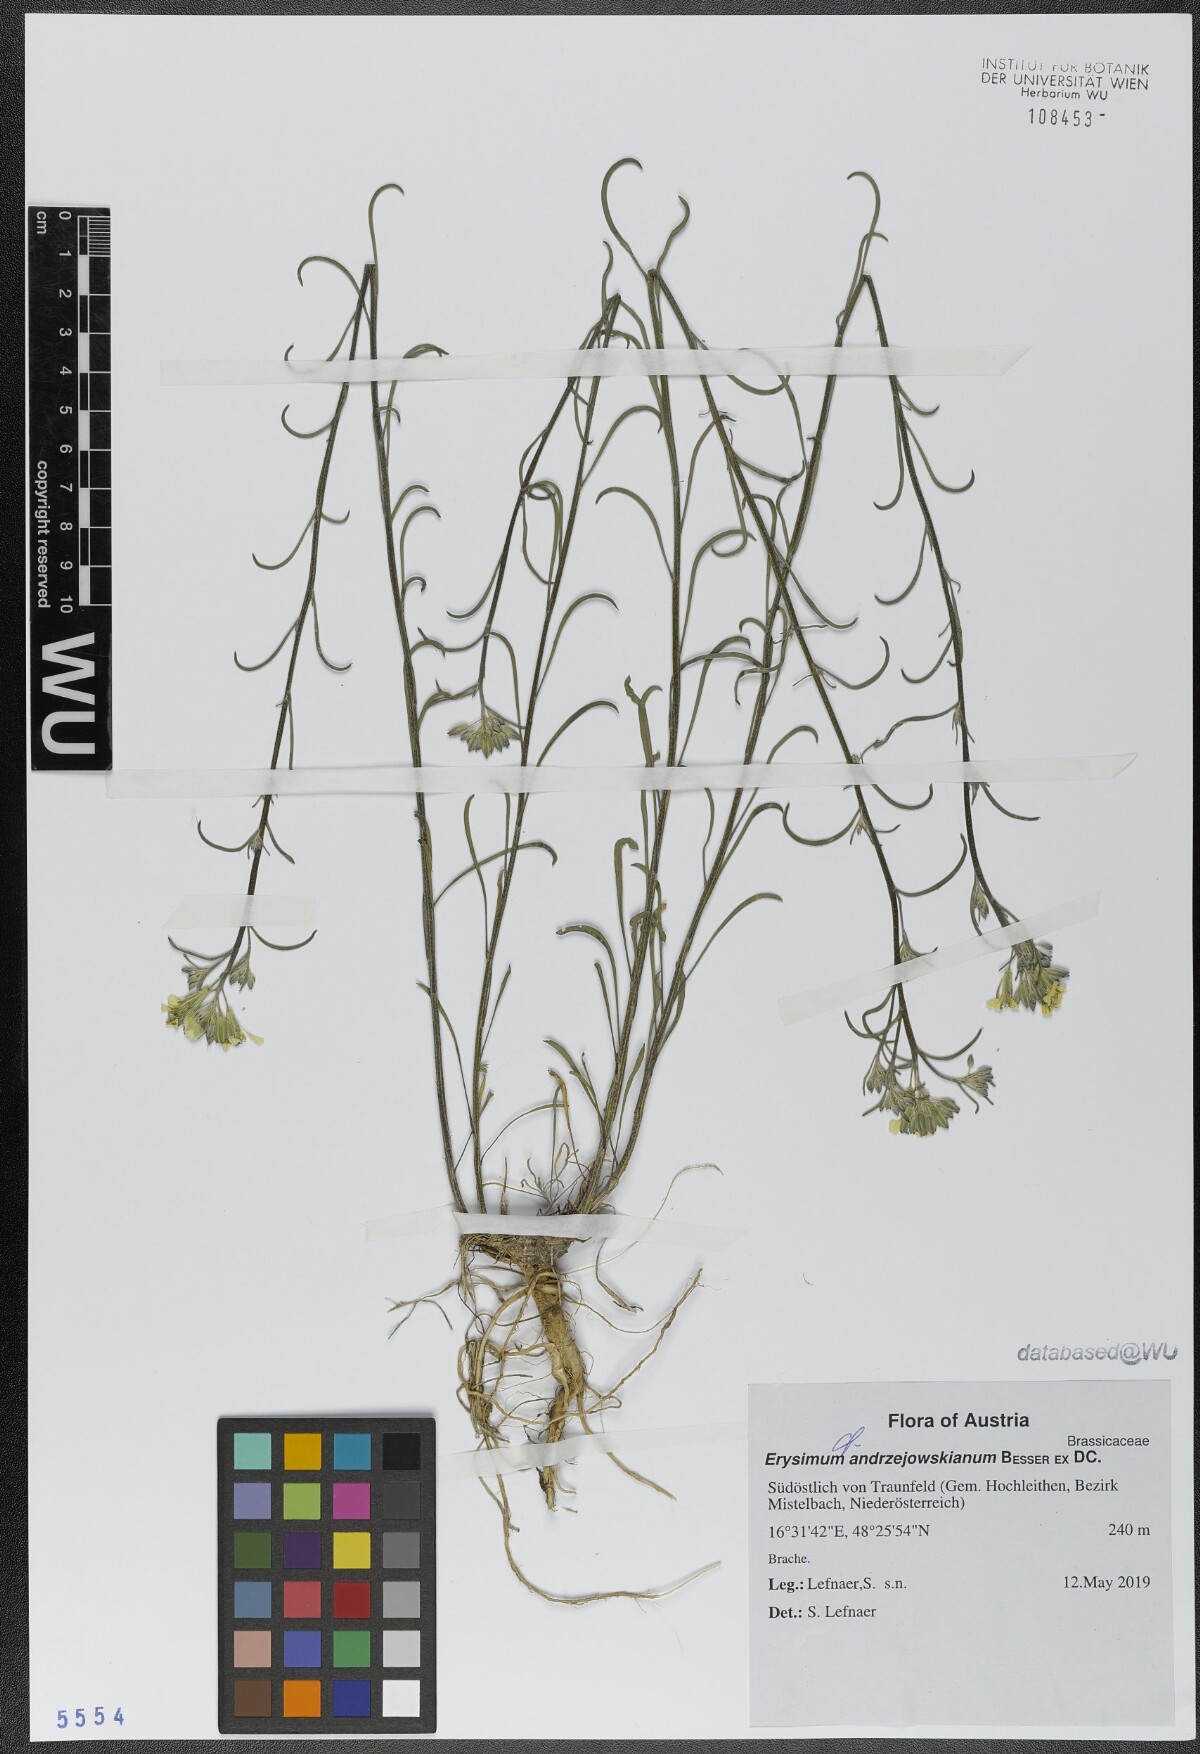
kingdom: Plantae
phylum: Tracheophyta
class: Magnoliopsida
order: Brassicales
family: Brassicaceae
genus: Erysimum
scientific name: Erysimum andrzejowskianum
